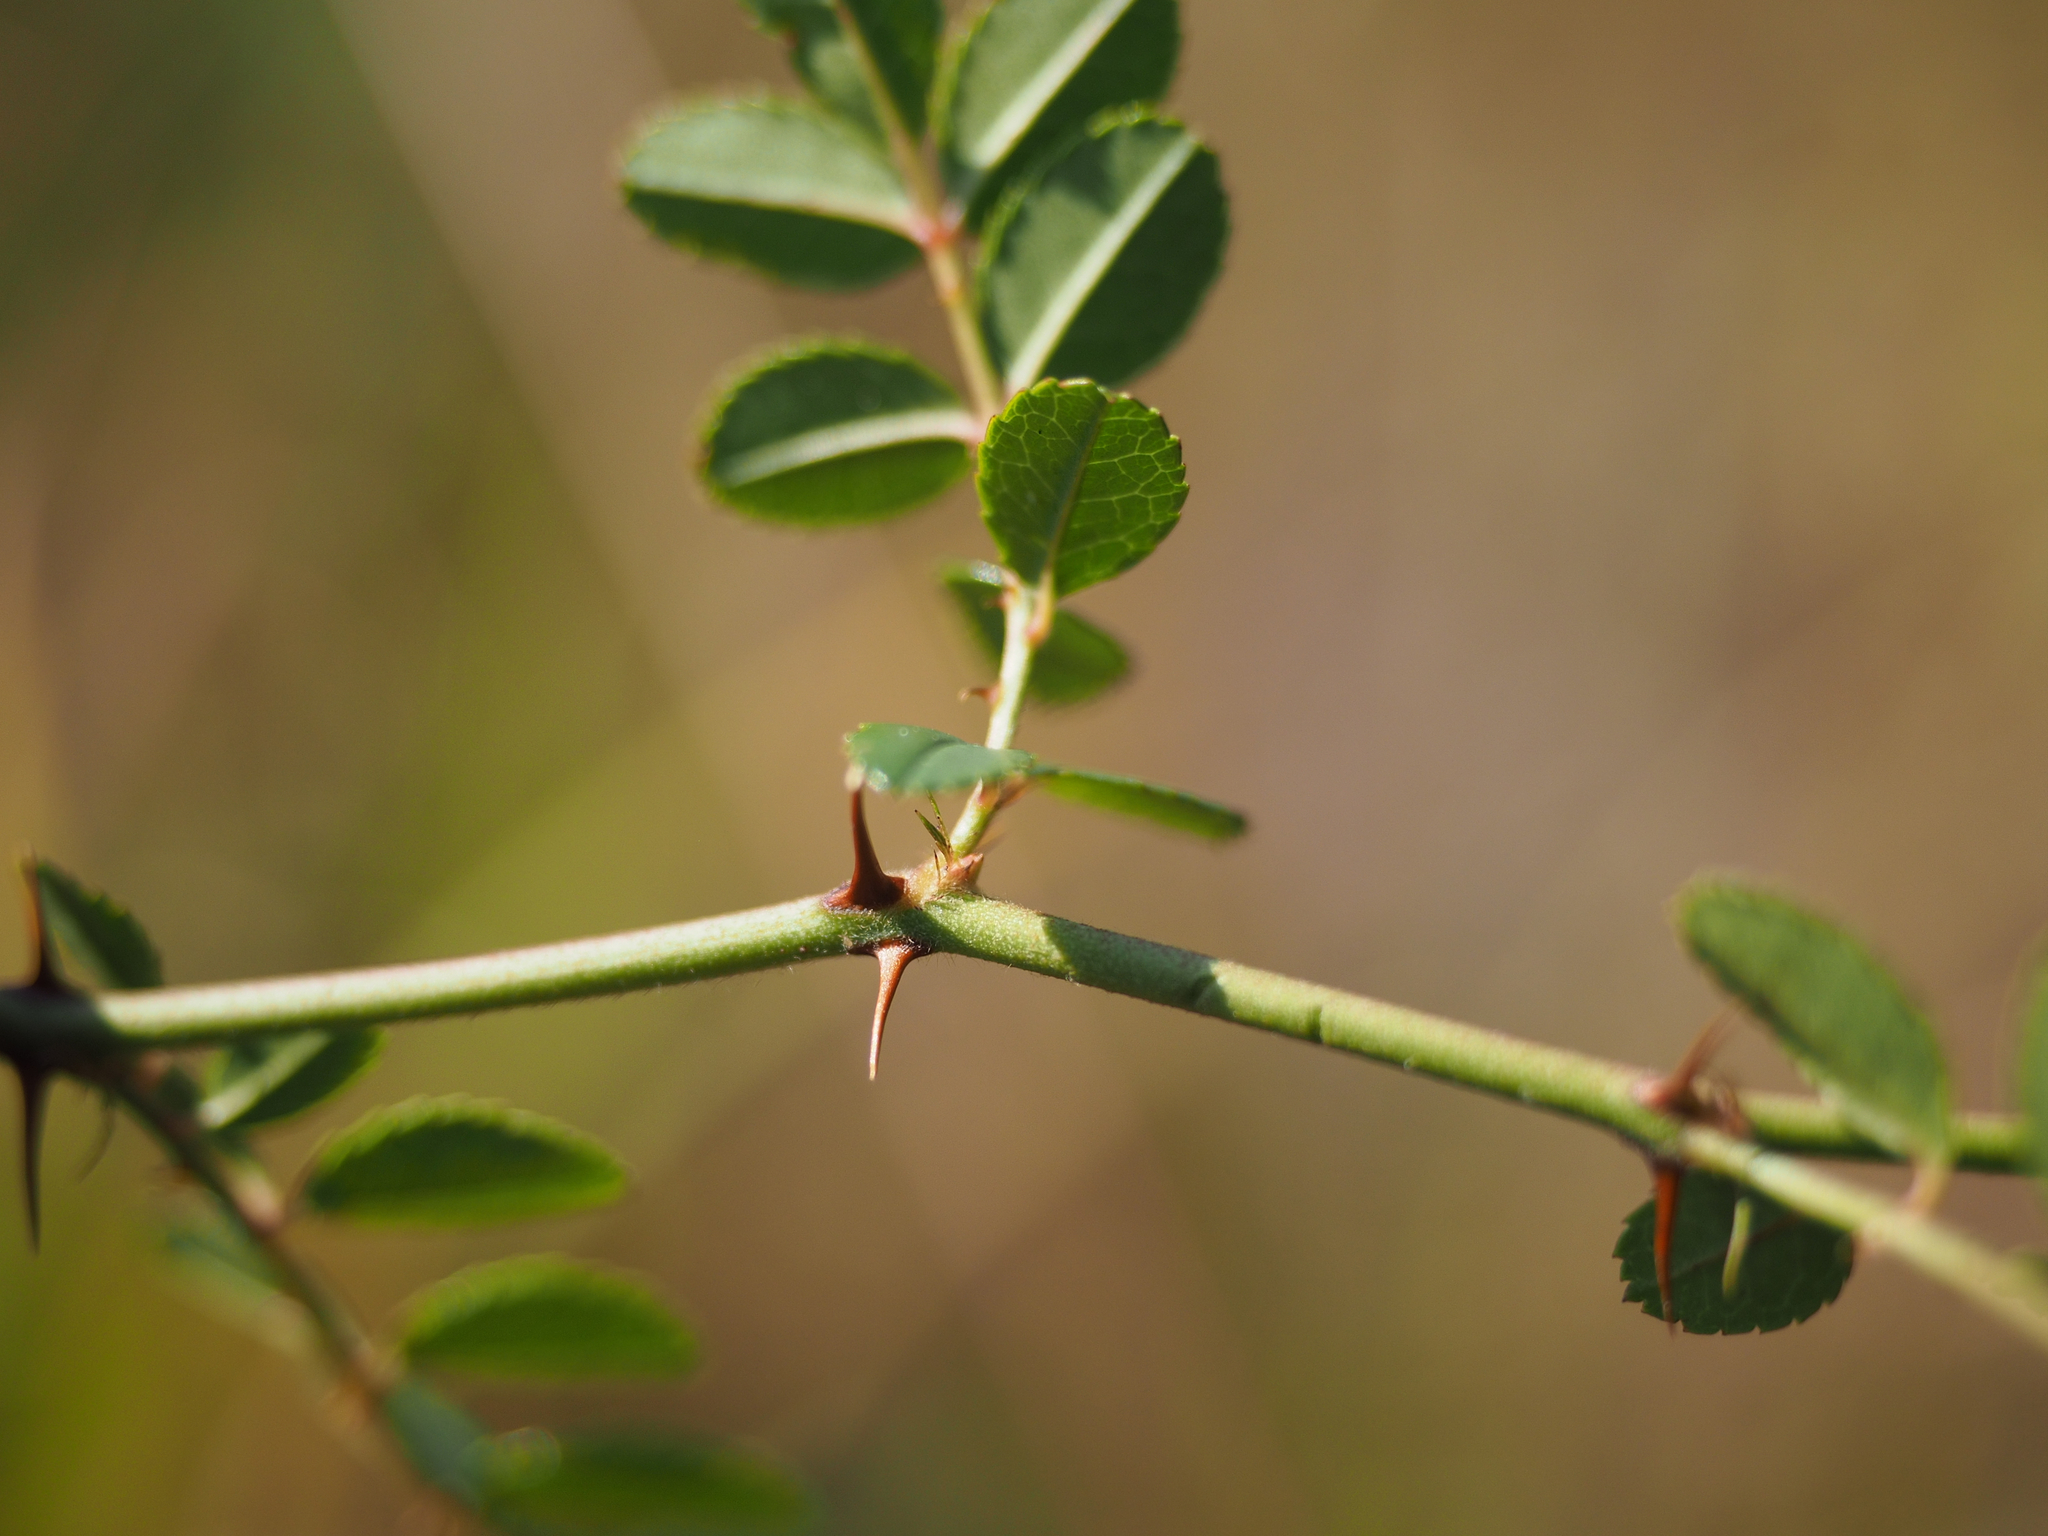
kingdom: Plantae
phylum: Tracheophyta
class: Magnoliopsida
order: Rosales
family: Rosaceae
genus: Rosa
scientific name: Rosa bracteata
